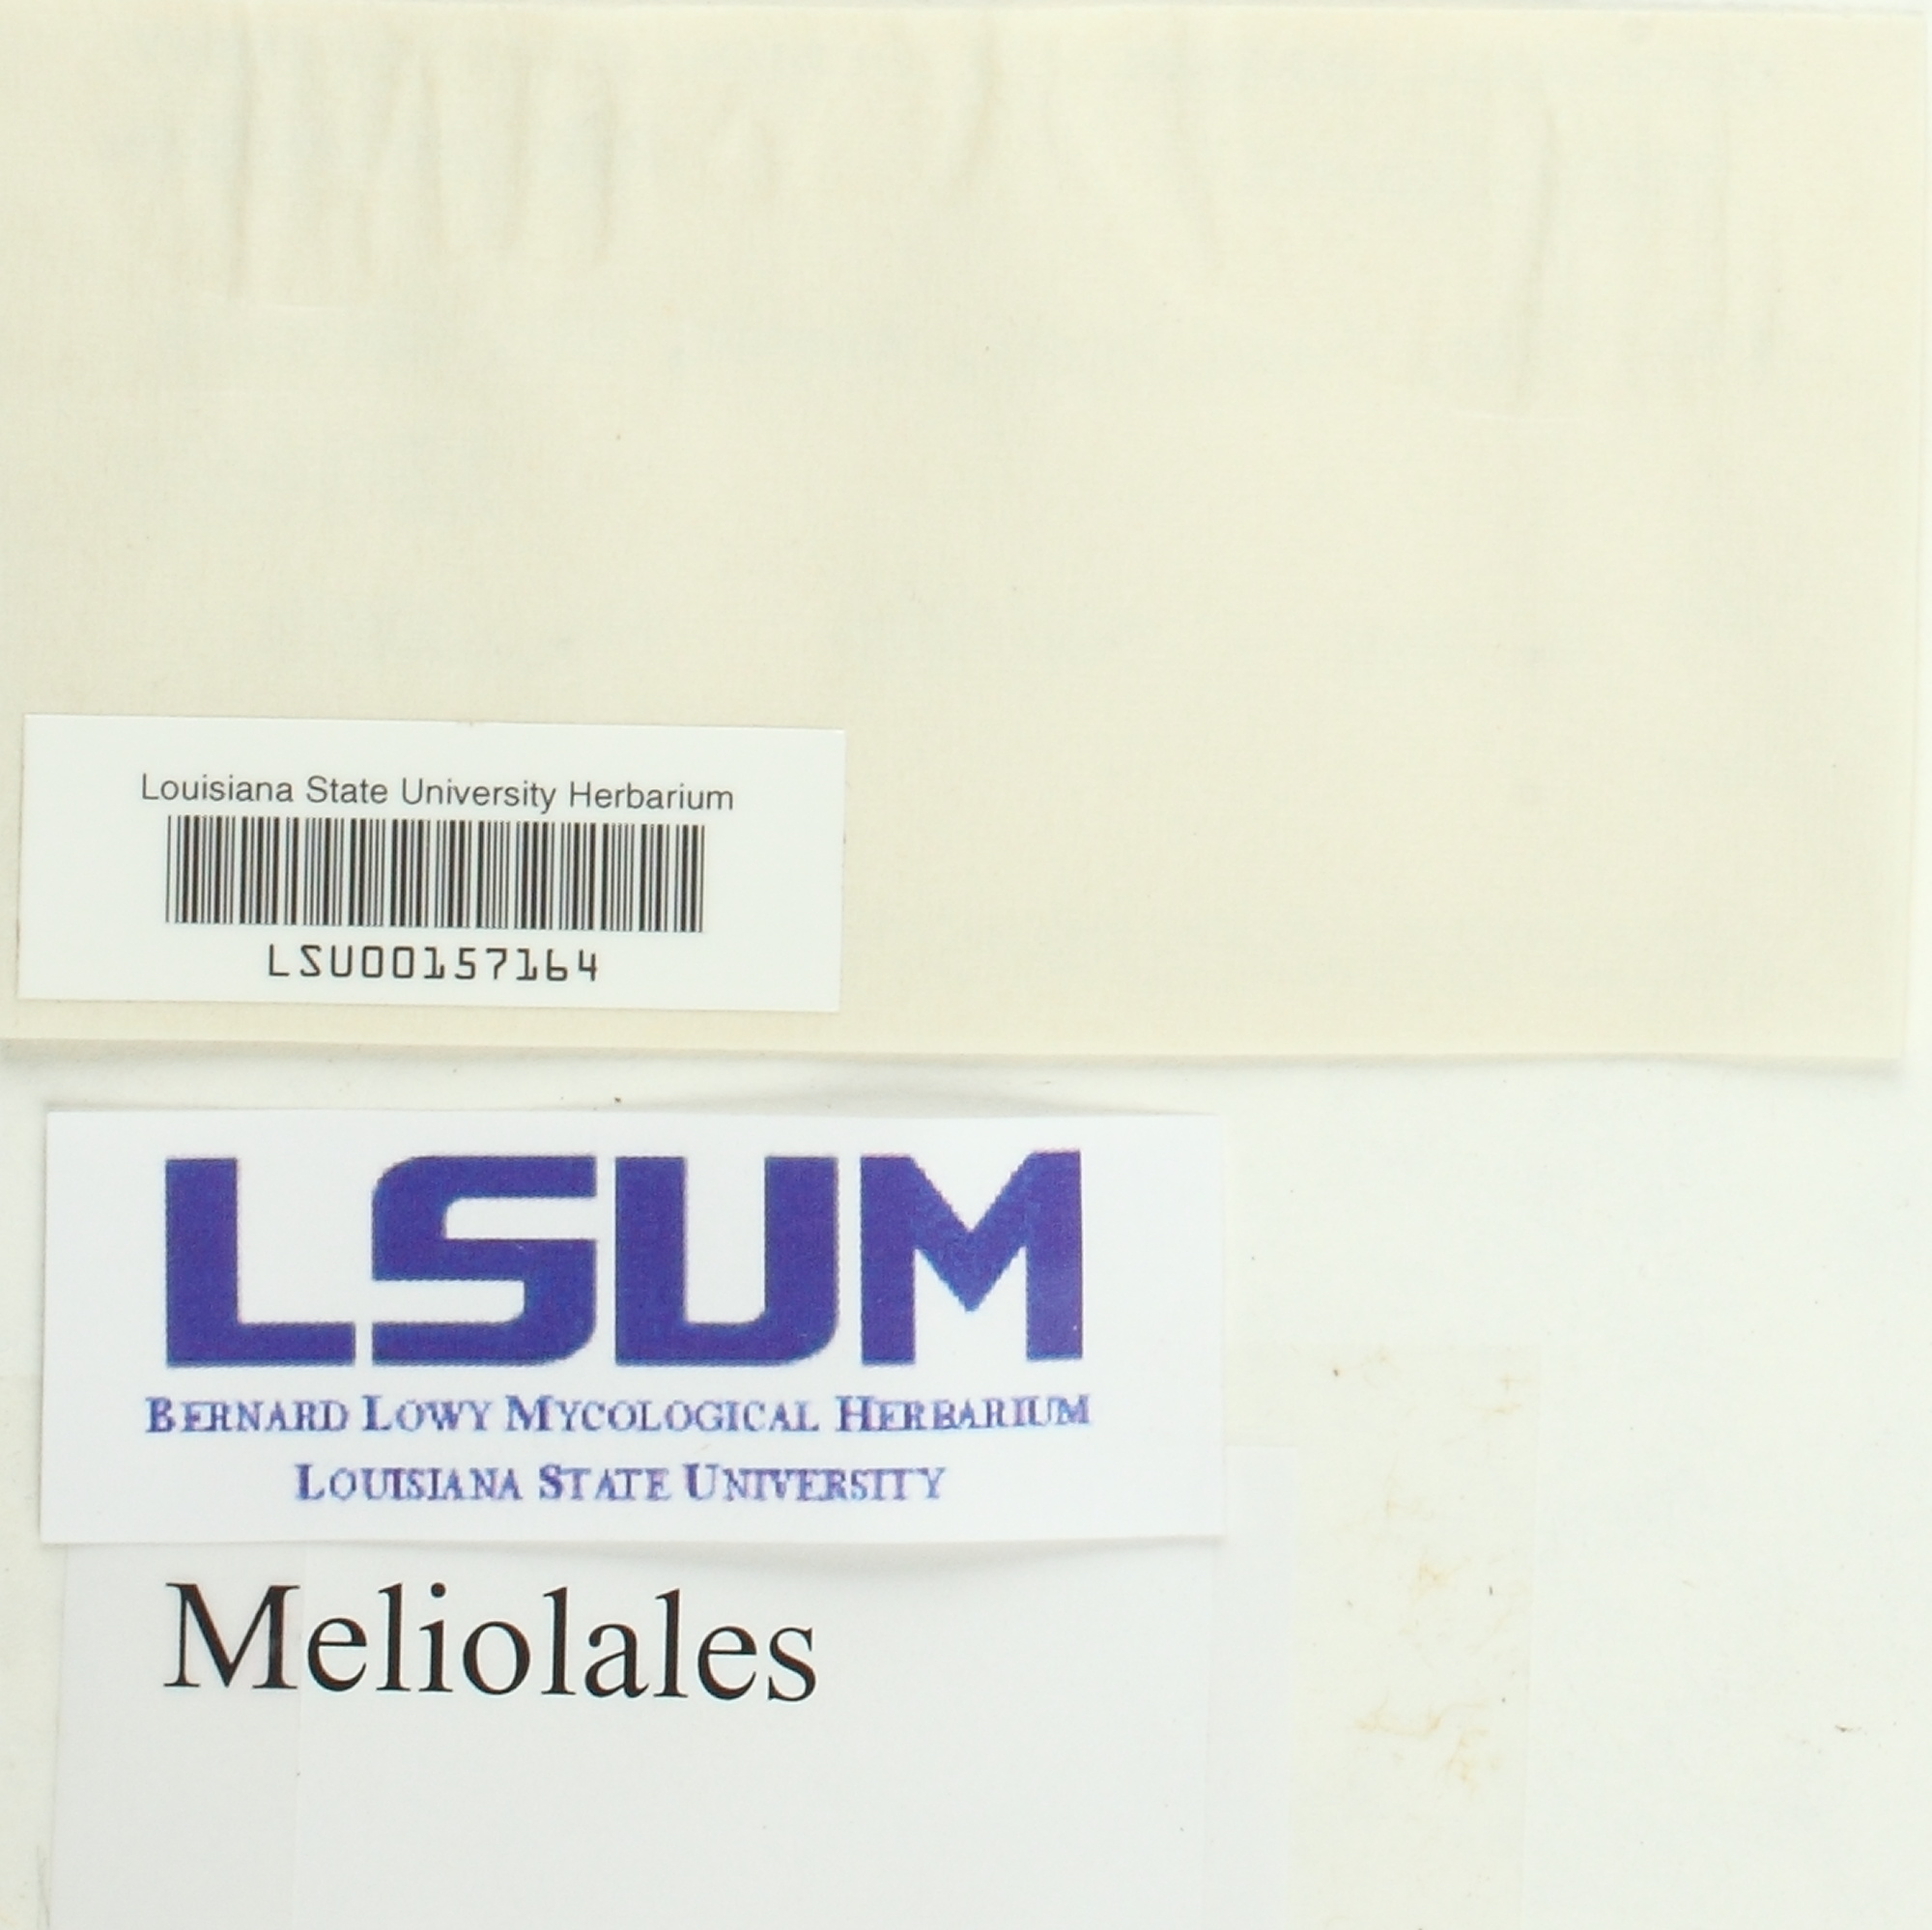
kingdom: Fungi
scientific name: Fungi
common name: Fungi
